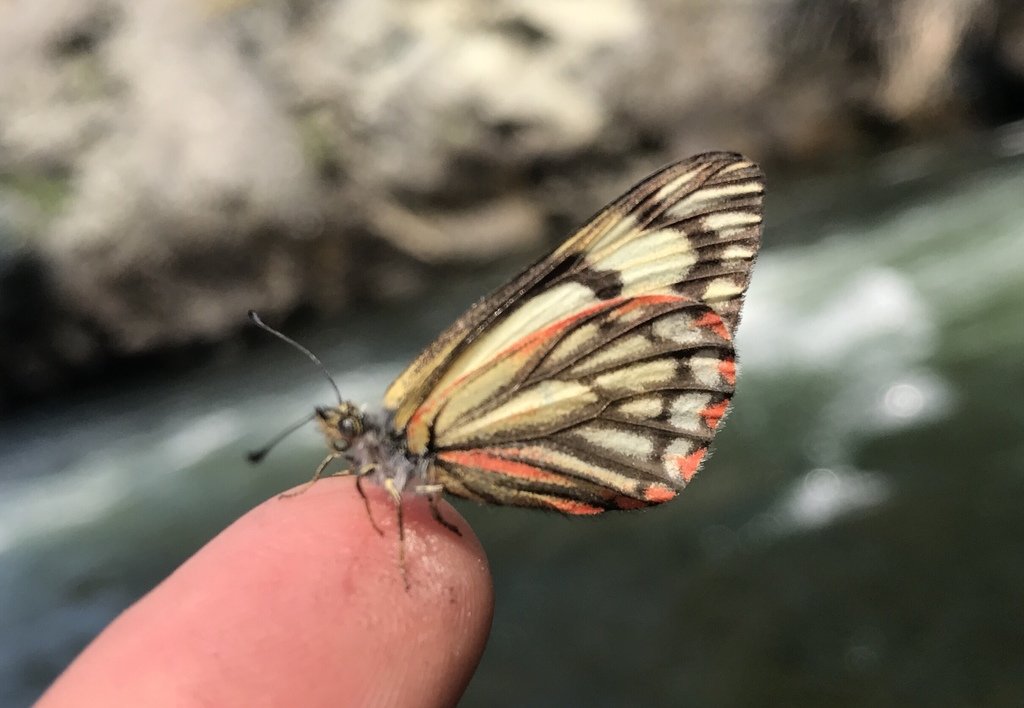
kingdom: Animalia
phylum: Arthropoda
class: Insecta
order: Lepidoptera
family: Pieridae
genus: Neophasia
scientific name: Neophasia menapia
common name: Pine White
